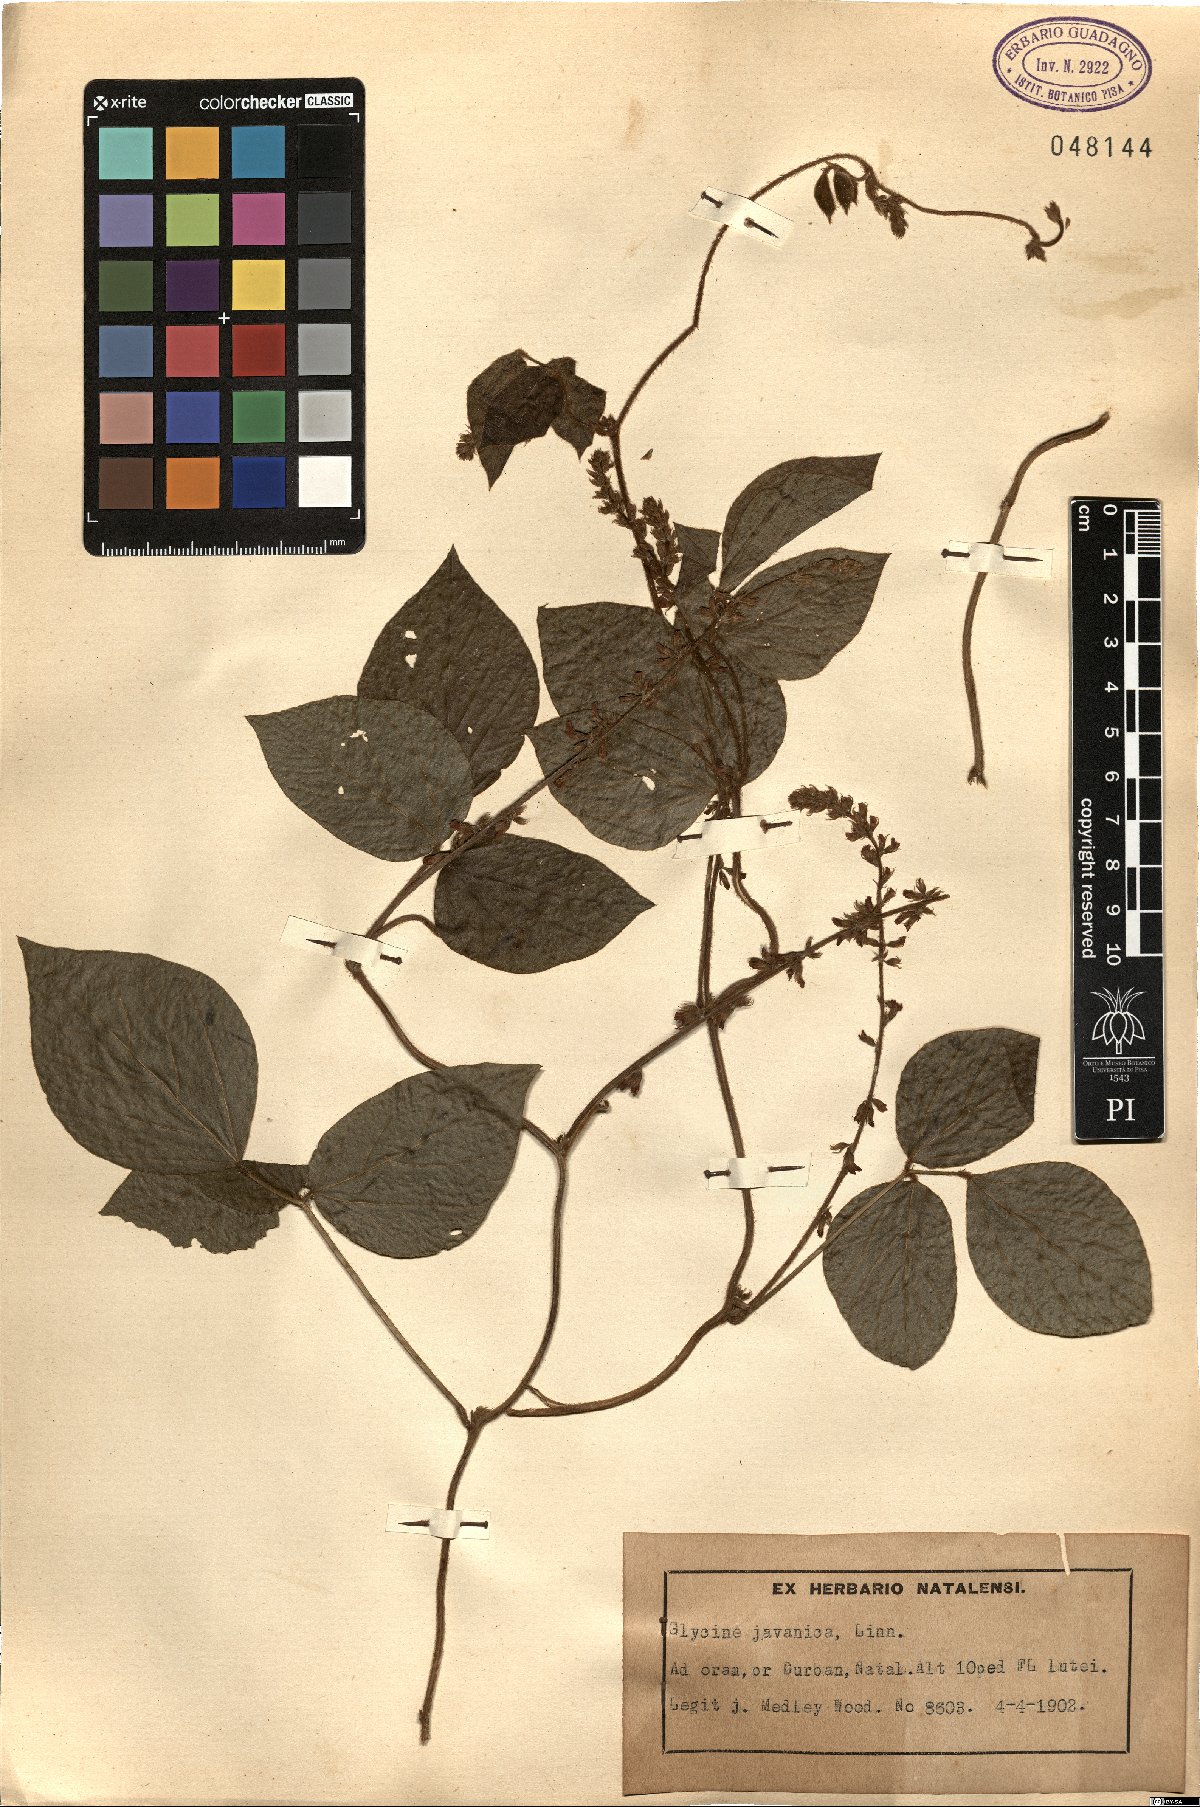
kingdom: Plantae
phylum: Tracheophyta
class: Magnoliopsida
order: Fabales
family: Fabaceae
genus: Pueraria
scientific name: Pueraria montana
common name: Kudzu
